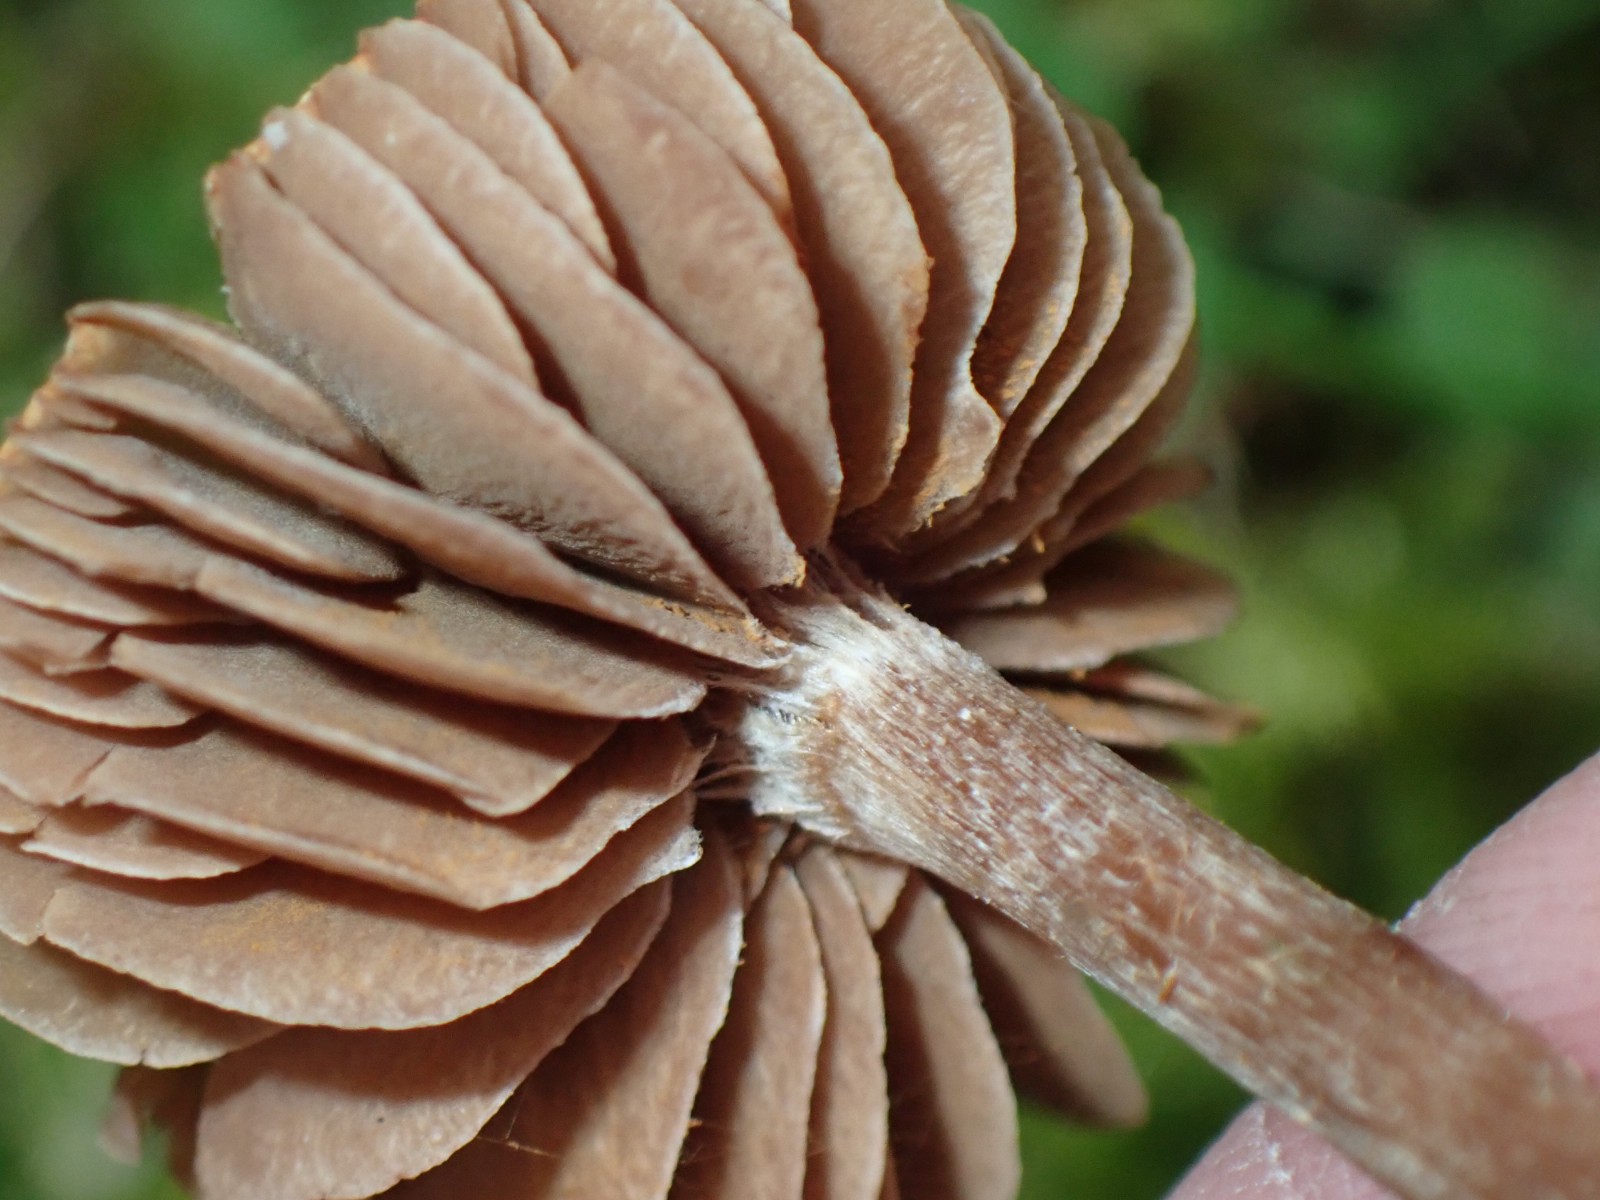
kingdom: Fungi
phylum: Basidiomycota
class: Agaricomycetes
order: Agaricales
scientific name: Agaricales
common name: champignonordenen
